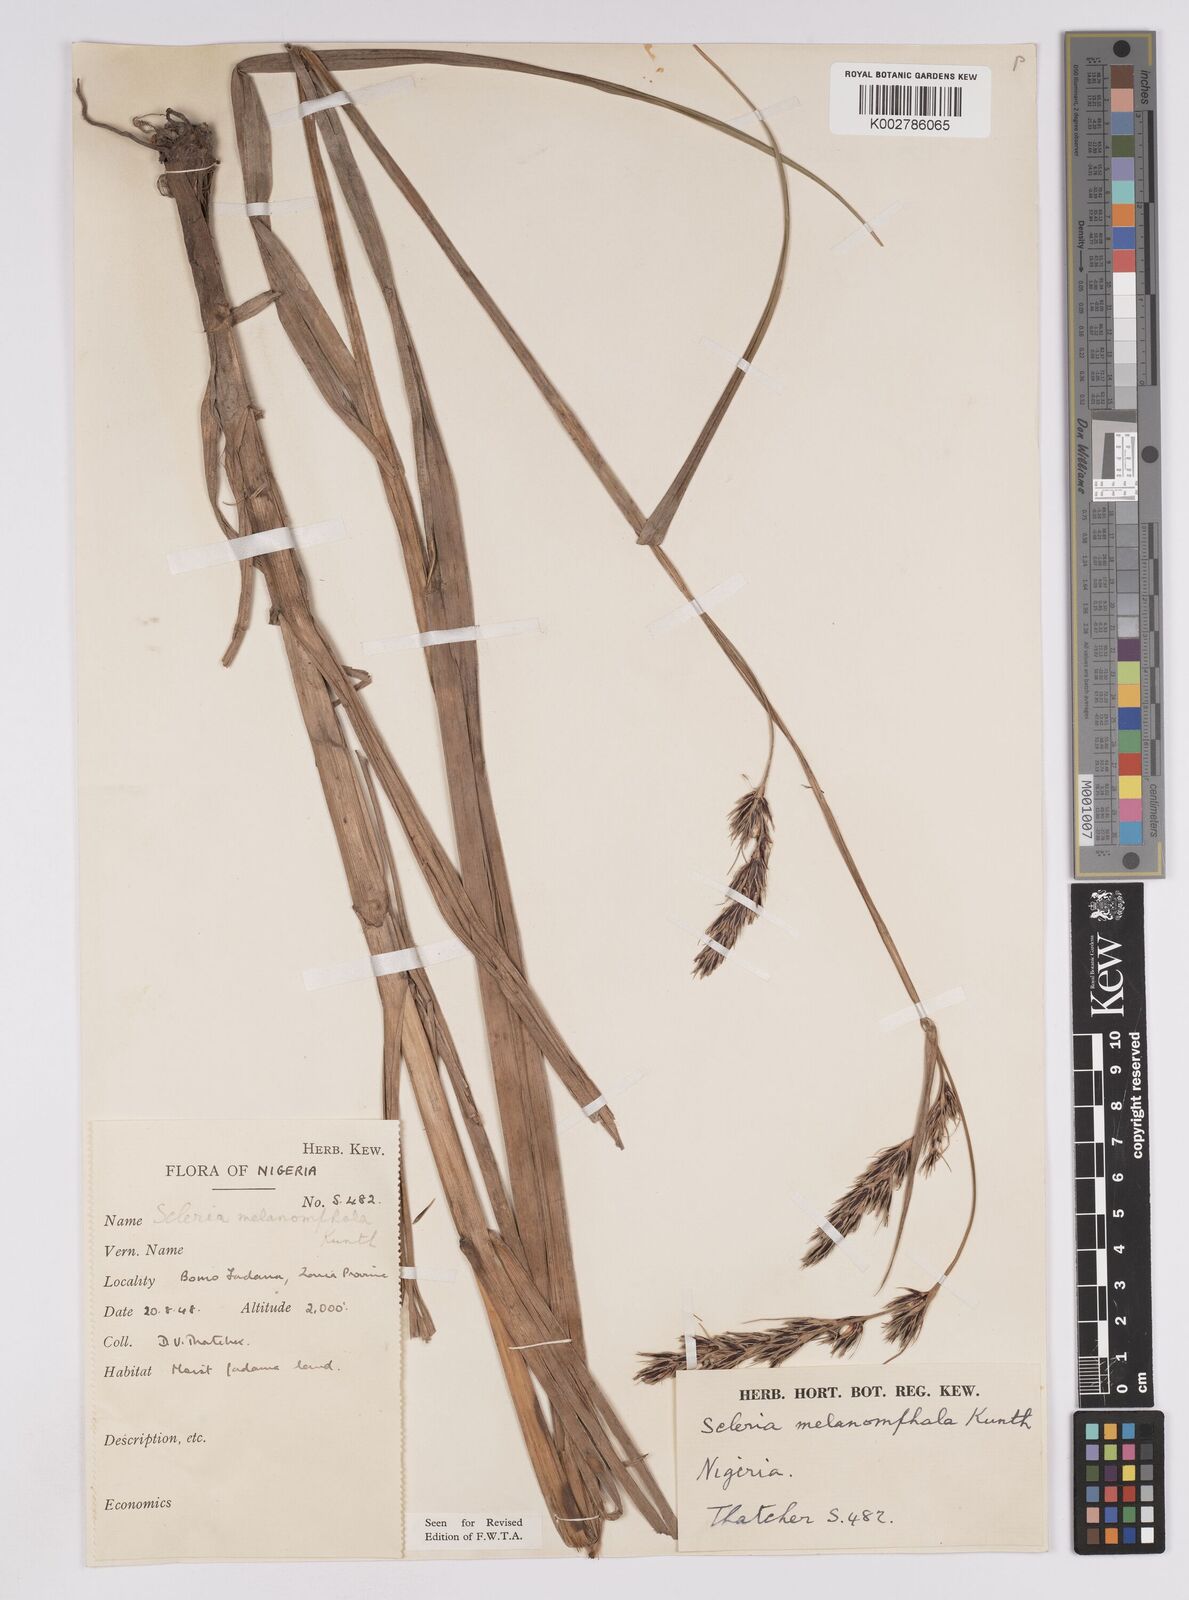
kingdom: Plantae
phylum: Tracheophyta
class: Liliopsida
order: Poales
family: Cyperaceae
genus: Scleria
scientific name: Scleria melanomphala
